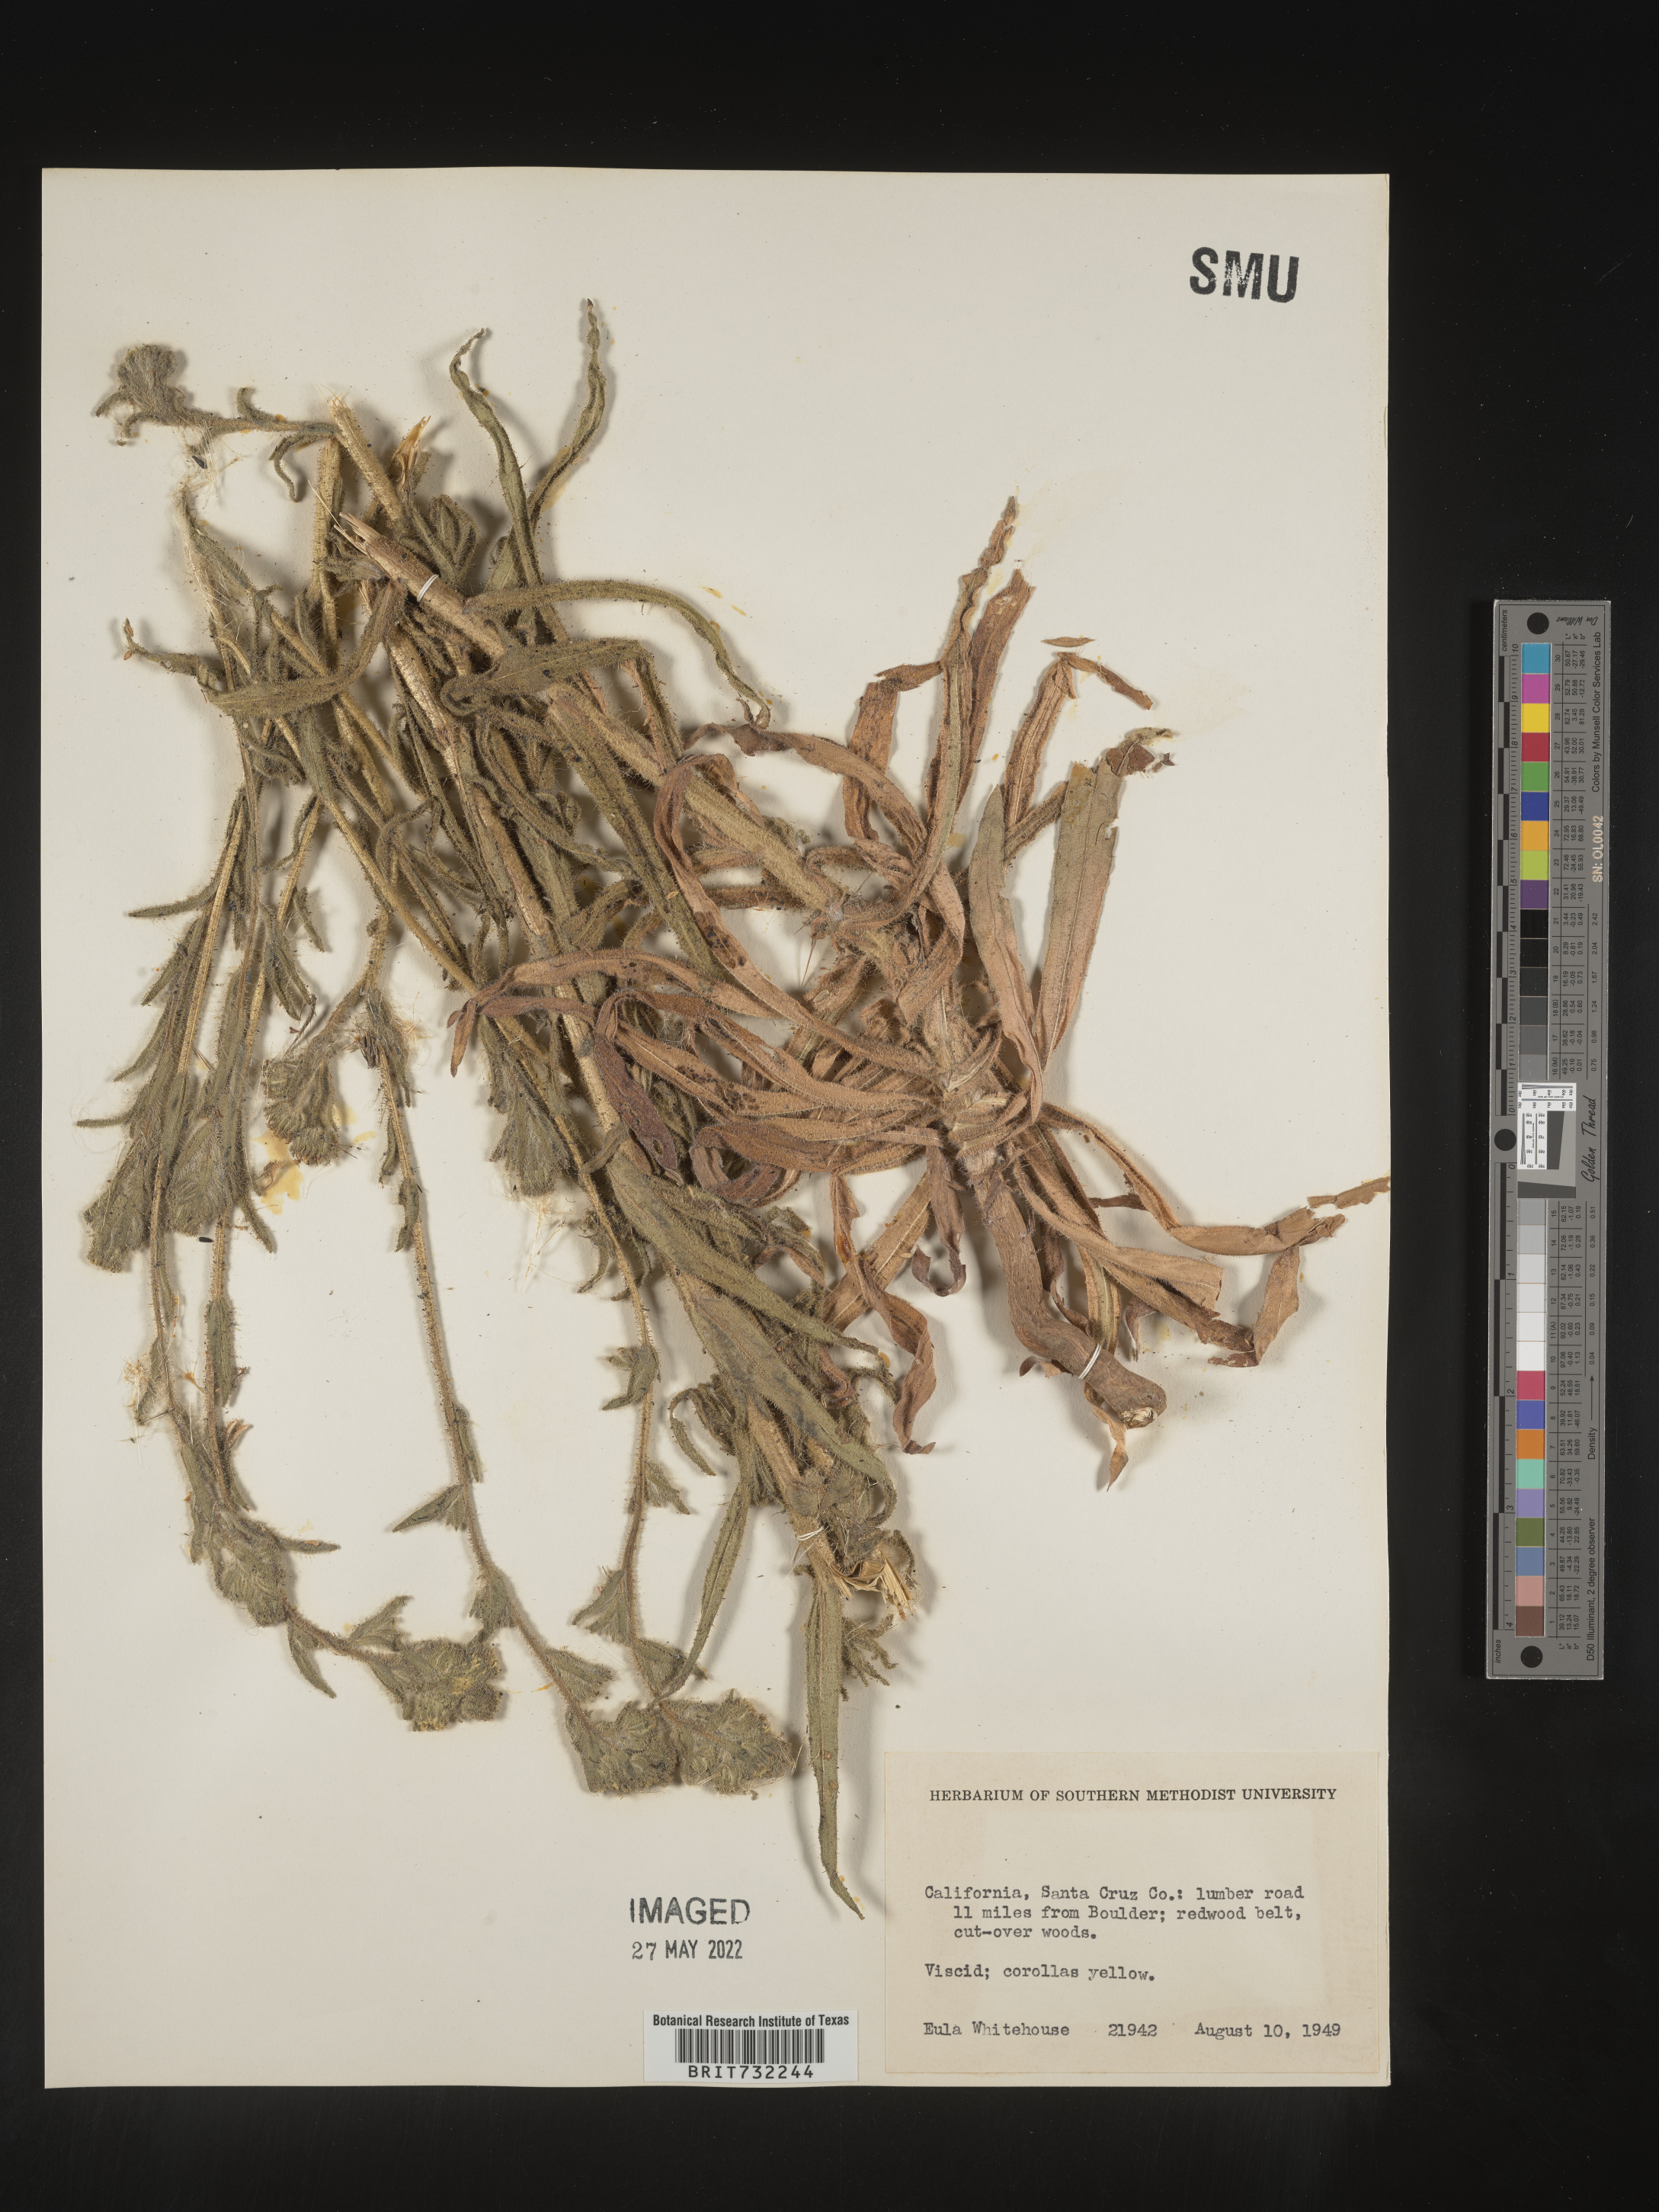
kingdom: Plantae
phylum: Tracheophyta
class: Magnoliopsida
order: Asterales
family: Asteraceae
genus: Madia
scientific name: Madia
